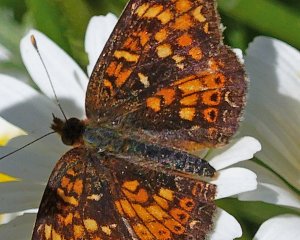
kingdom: Animalia
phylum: Arthropoda
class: Insecta
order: Lepidoptera
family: Nymphalidae
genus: Phyciodes
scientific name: Phyciodes tharos
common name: Field Crescent
